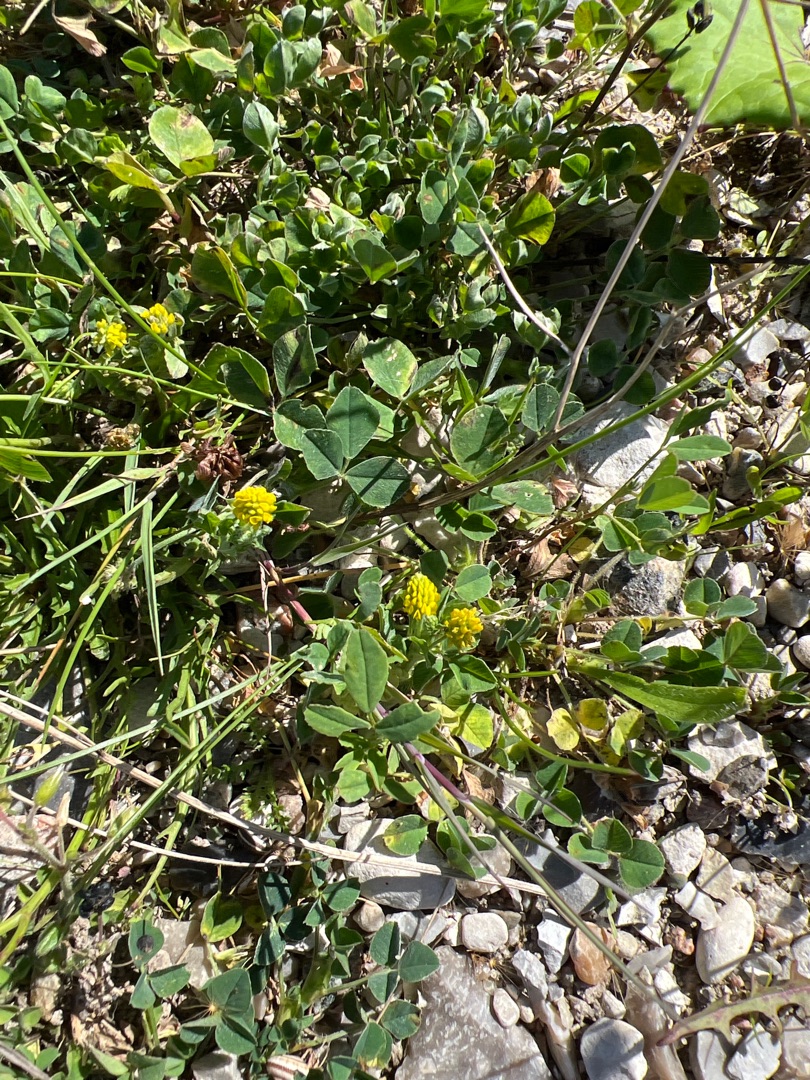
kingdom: Plantae
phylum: Tracheophyta
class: Magnoliopsida
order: Fabales
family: Fabaceae
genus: Medicago
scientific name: Medicago lupulina
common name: Humle-sneglebælg
